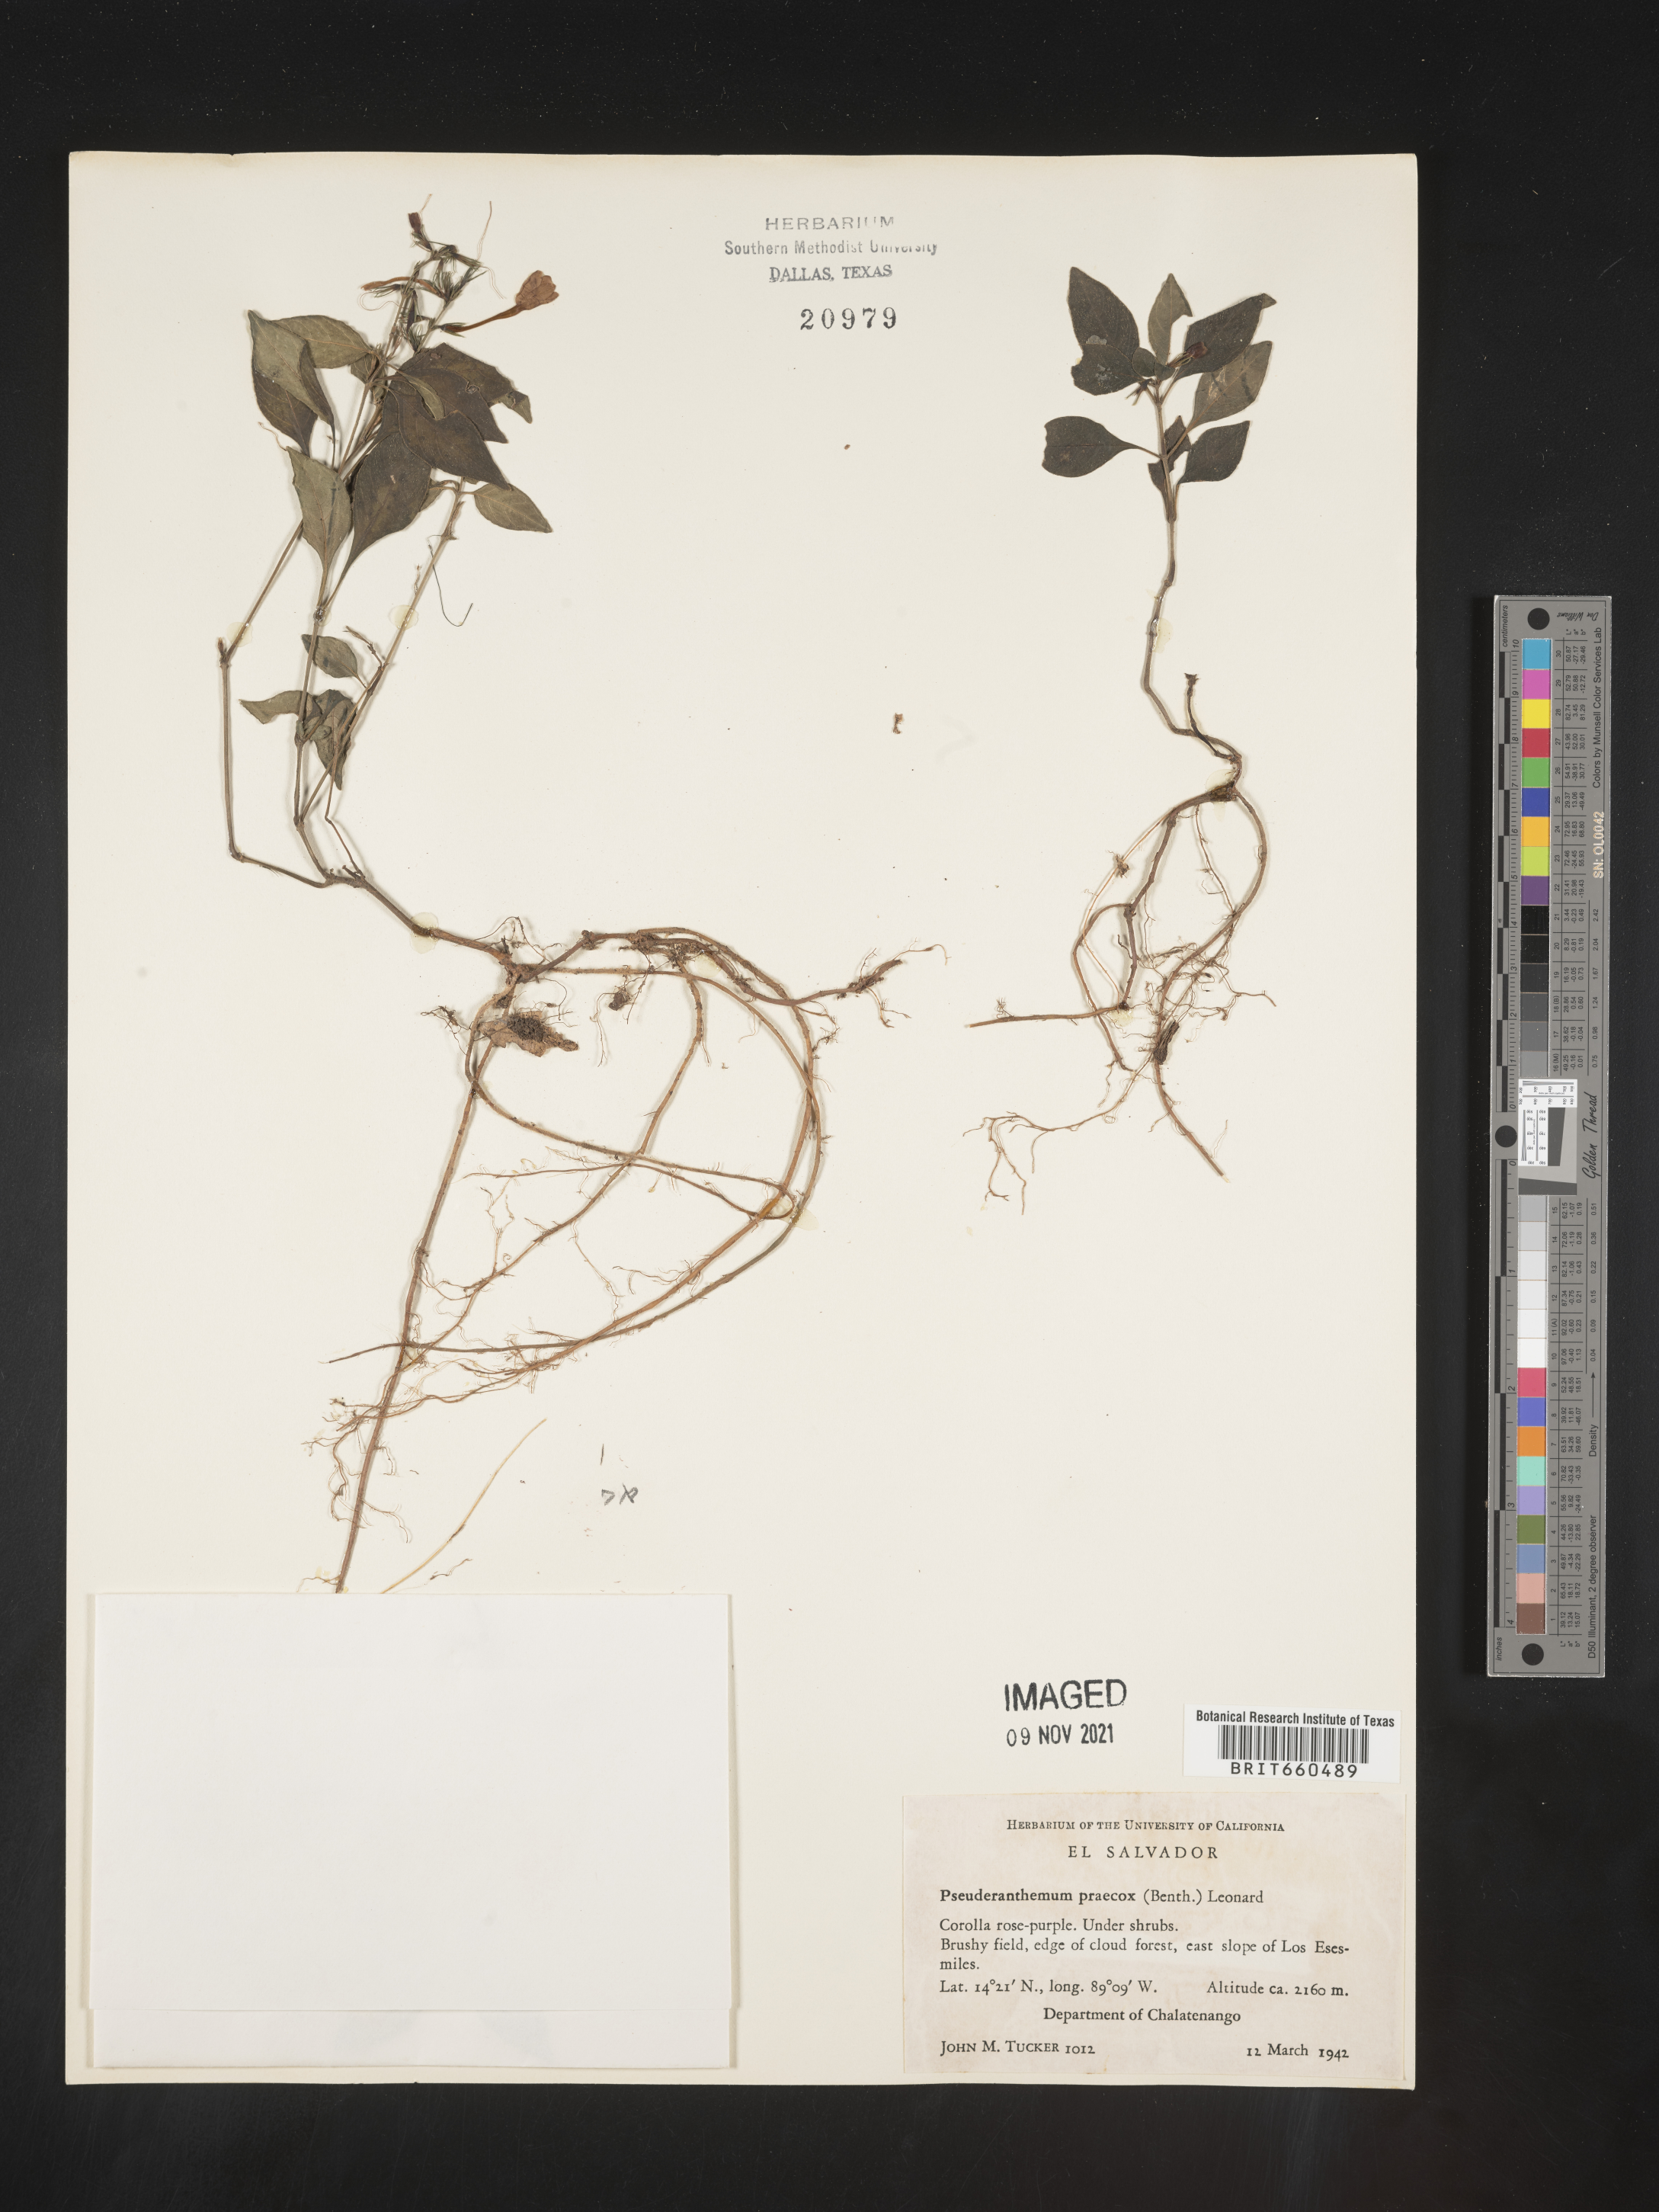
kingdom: Plantae
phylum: Tracheophyta
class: Magnoliopsida
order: Lamiales
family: Acanthaceae
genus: Pseuderanthemum
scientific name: Pseuderanthemum
